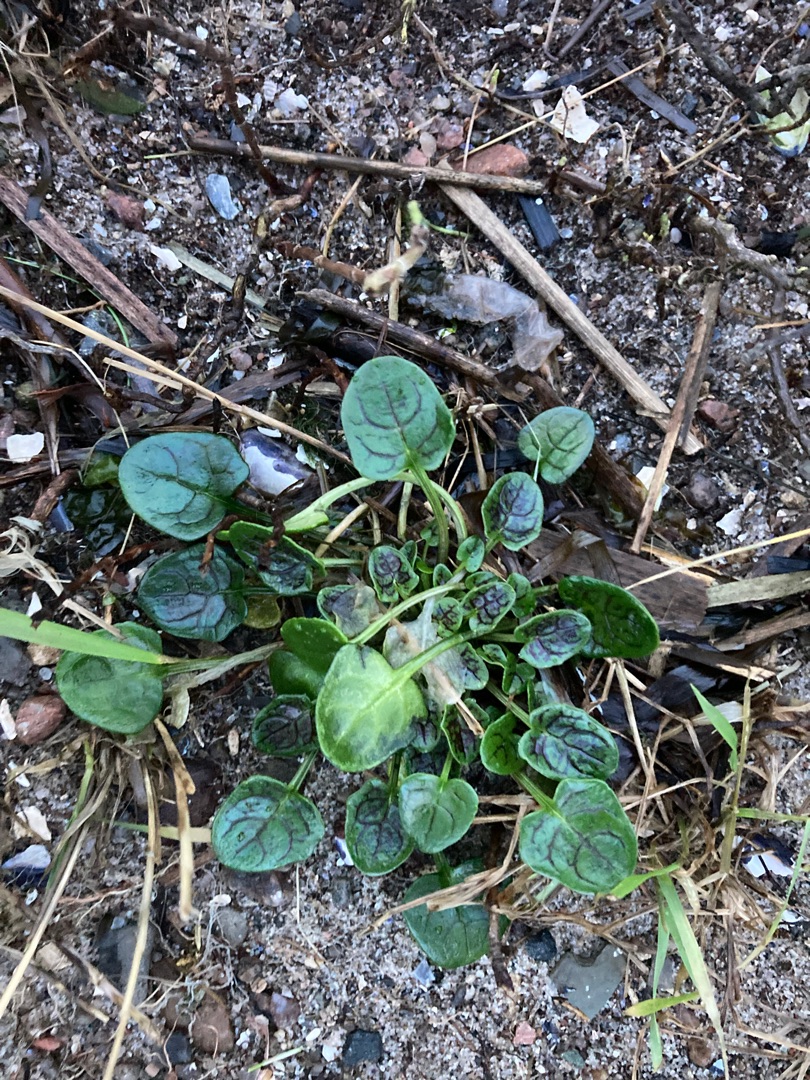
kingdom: Plantae
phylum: Tracheophyta
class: Magnoliopsida
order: Brassicales
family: Brassicaceae
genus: Cochlearia
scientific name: Cochlearia officinalis
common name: Læge-kokleare (underart)
